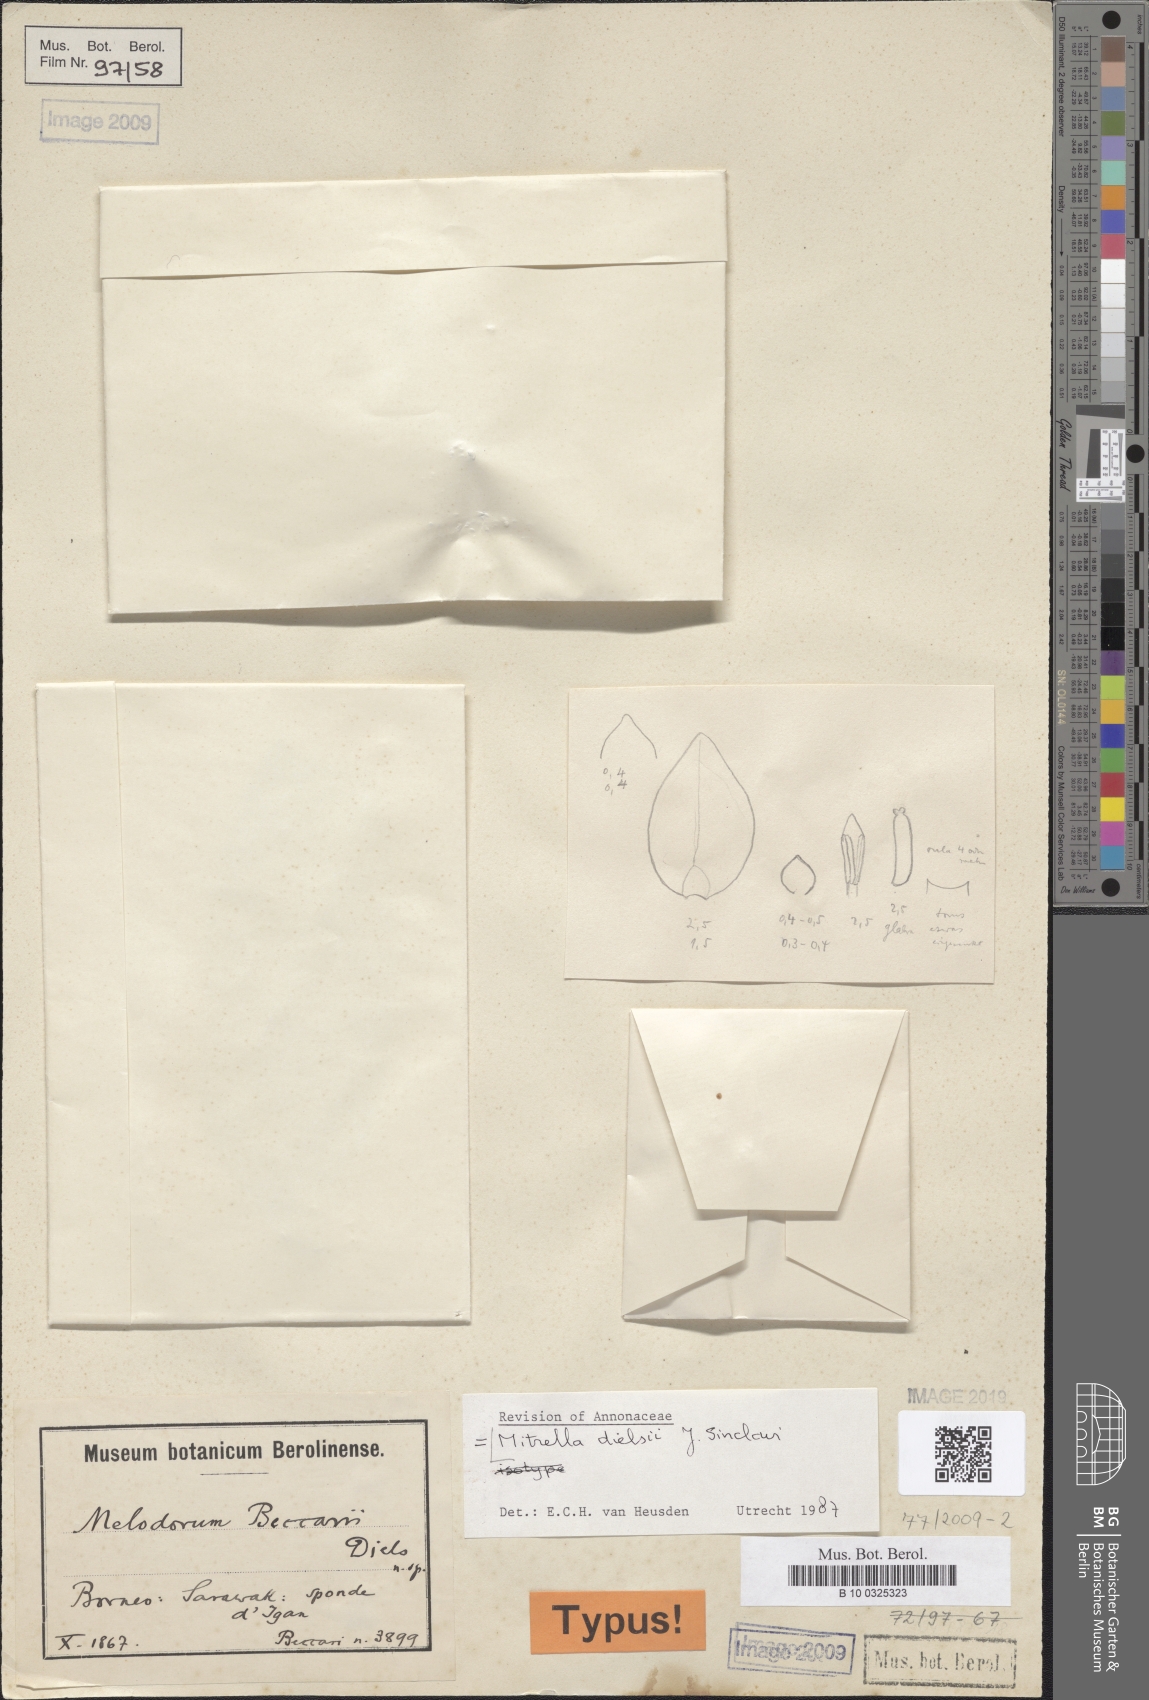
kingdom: Plantae
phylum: Tracheophyta
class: Magnoliopsida
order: Magnoliales
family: Annonaceae
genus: Mitrella
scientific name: Mitrella dielsii
